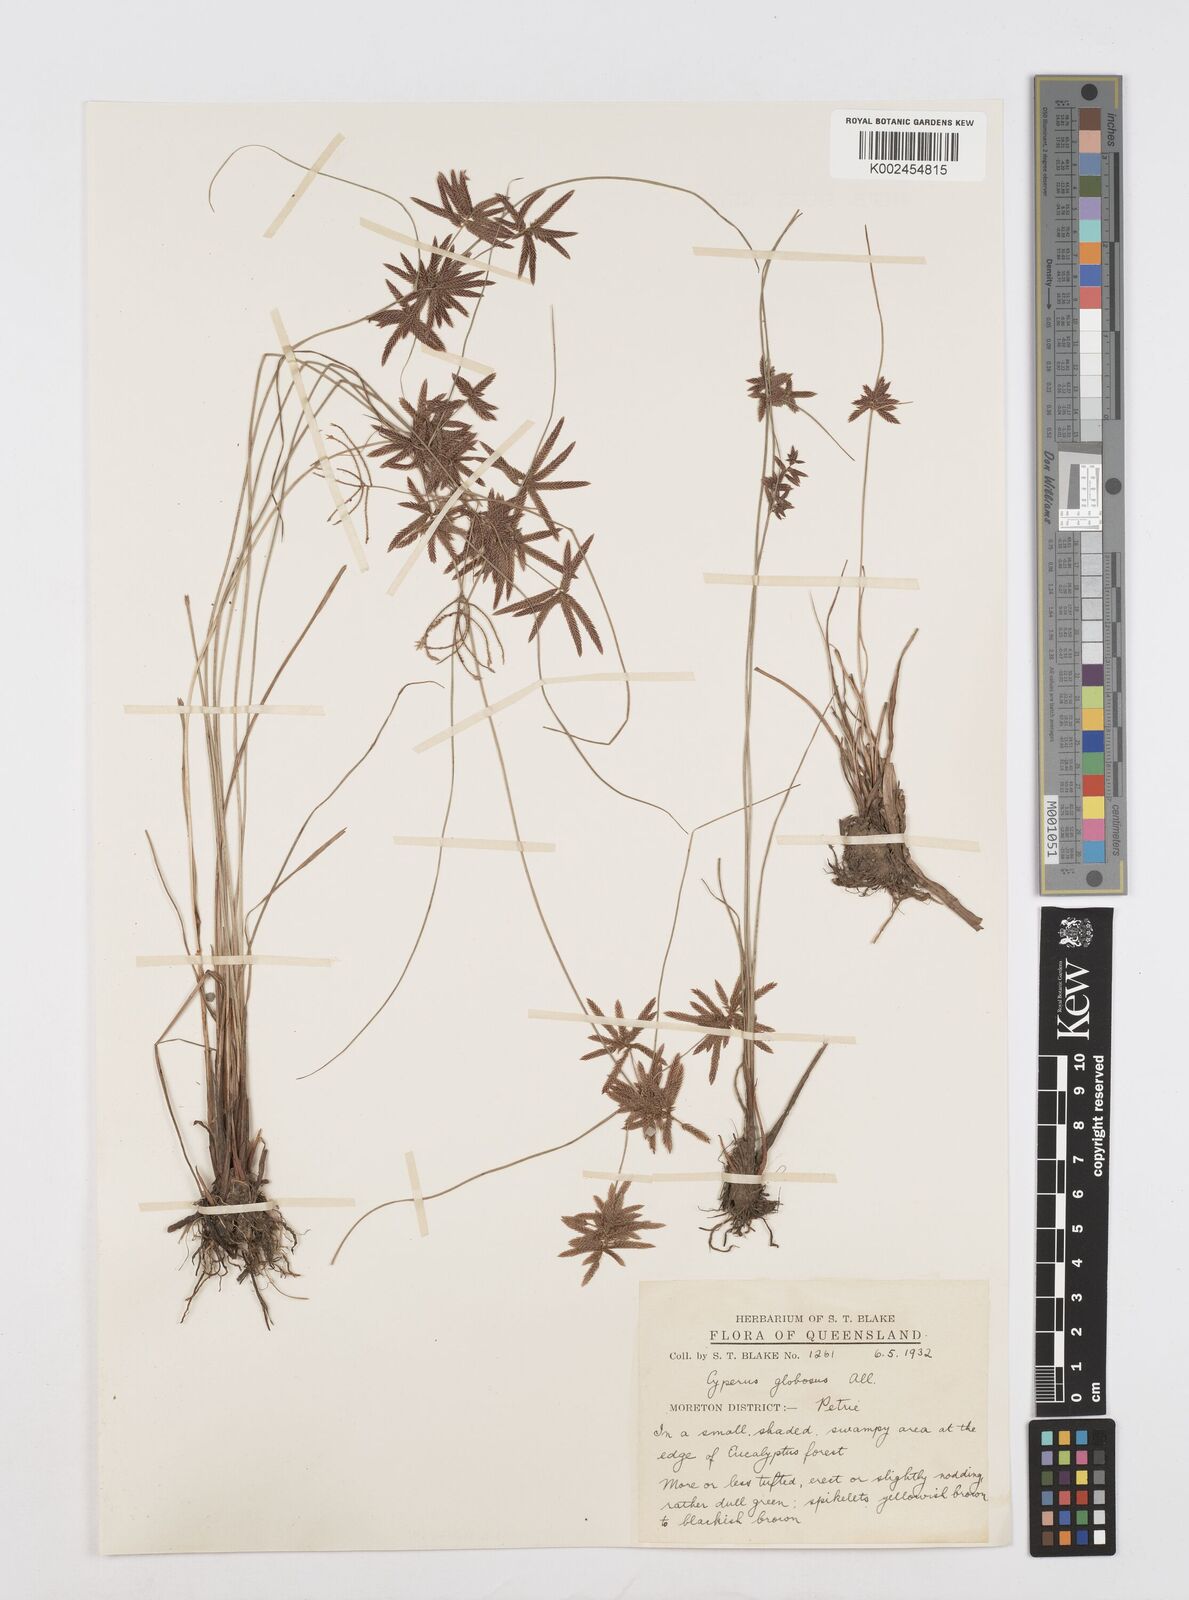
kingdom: Plantae
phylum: Tracheophyta
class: Liliopsida
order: Poales
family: Cyperaceae
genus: Cyperus
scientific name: Cyperus flavidus
